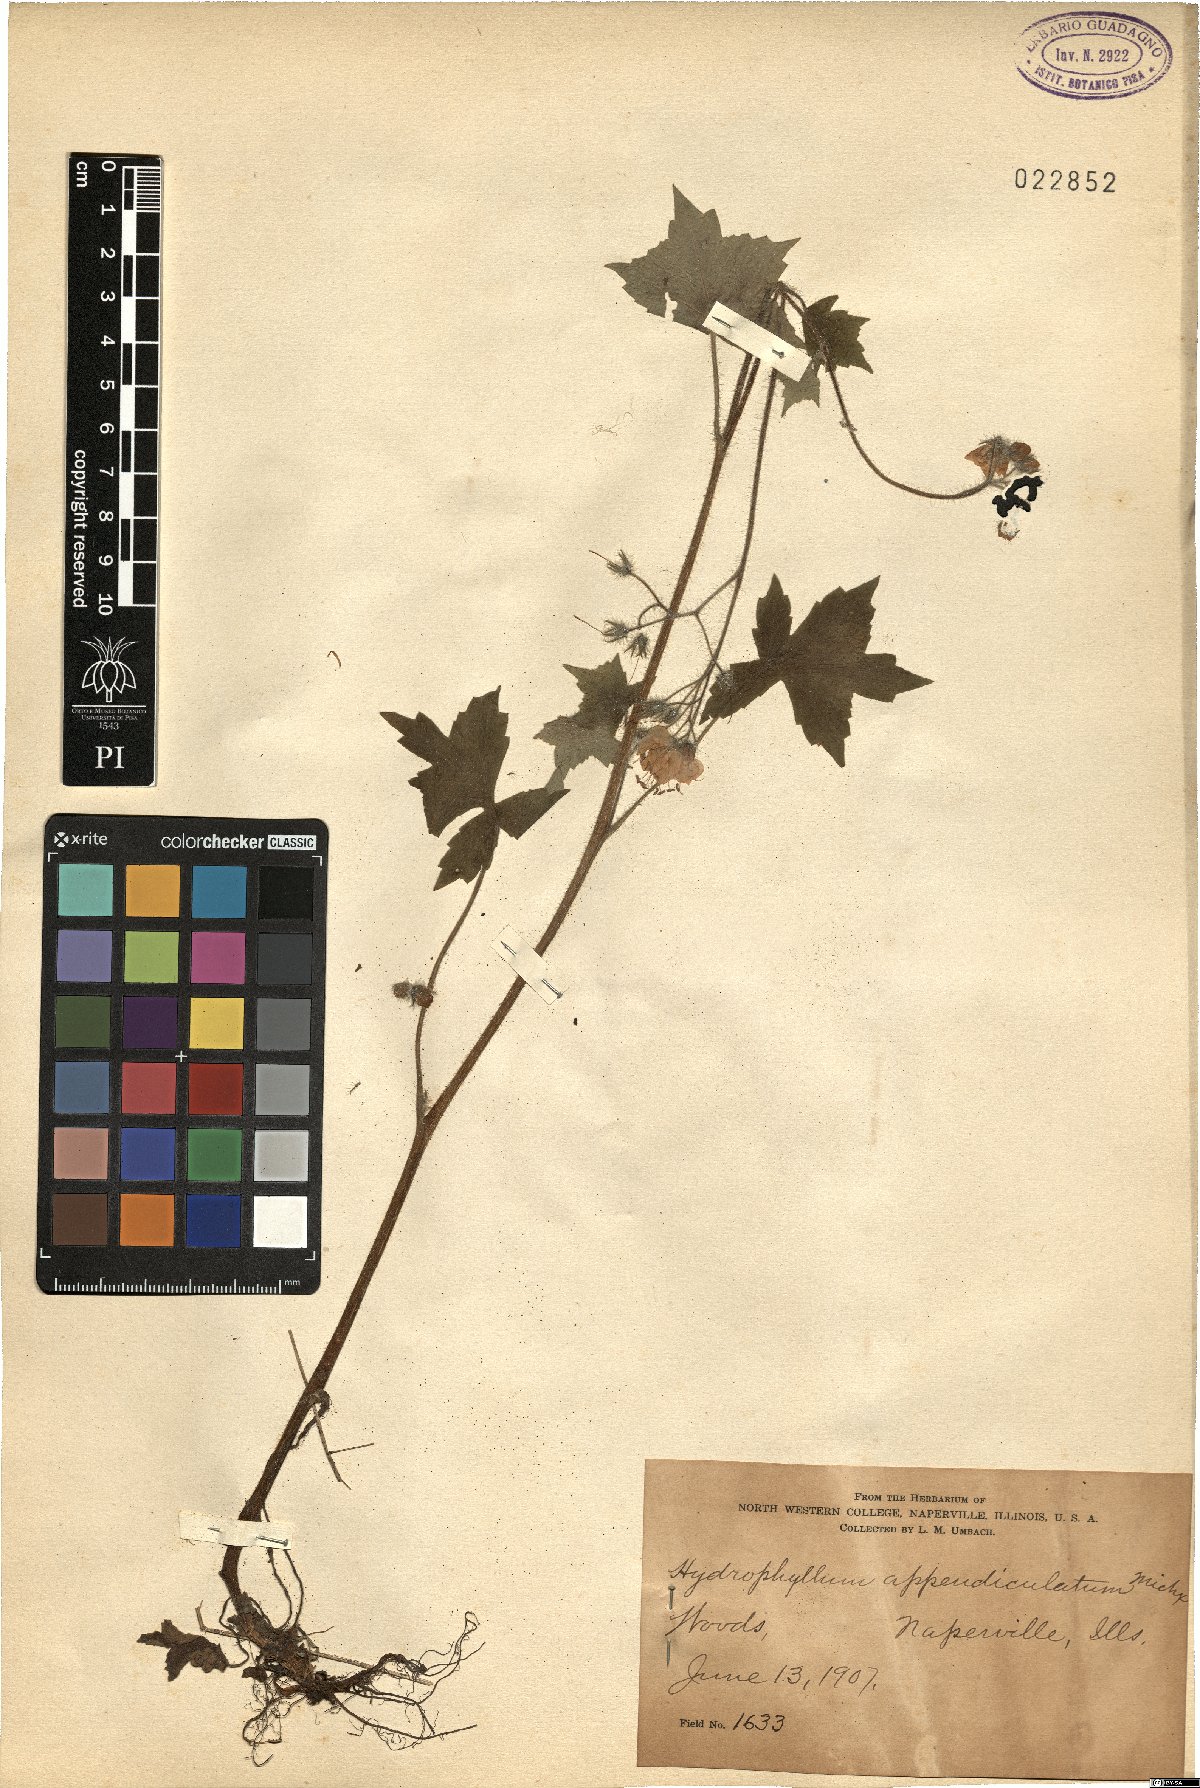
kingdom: Plantae
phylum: Tracheophyta
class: Magnoliopsida
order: Boraginales
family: Hydrophyllaceae
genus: Hydrophyllum
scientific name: Hydrophyllum appendiculatum
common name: Appendaged waterleaf
